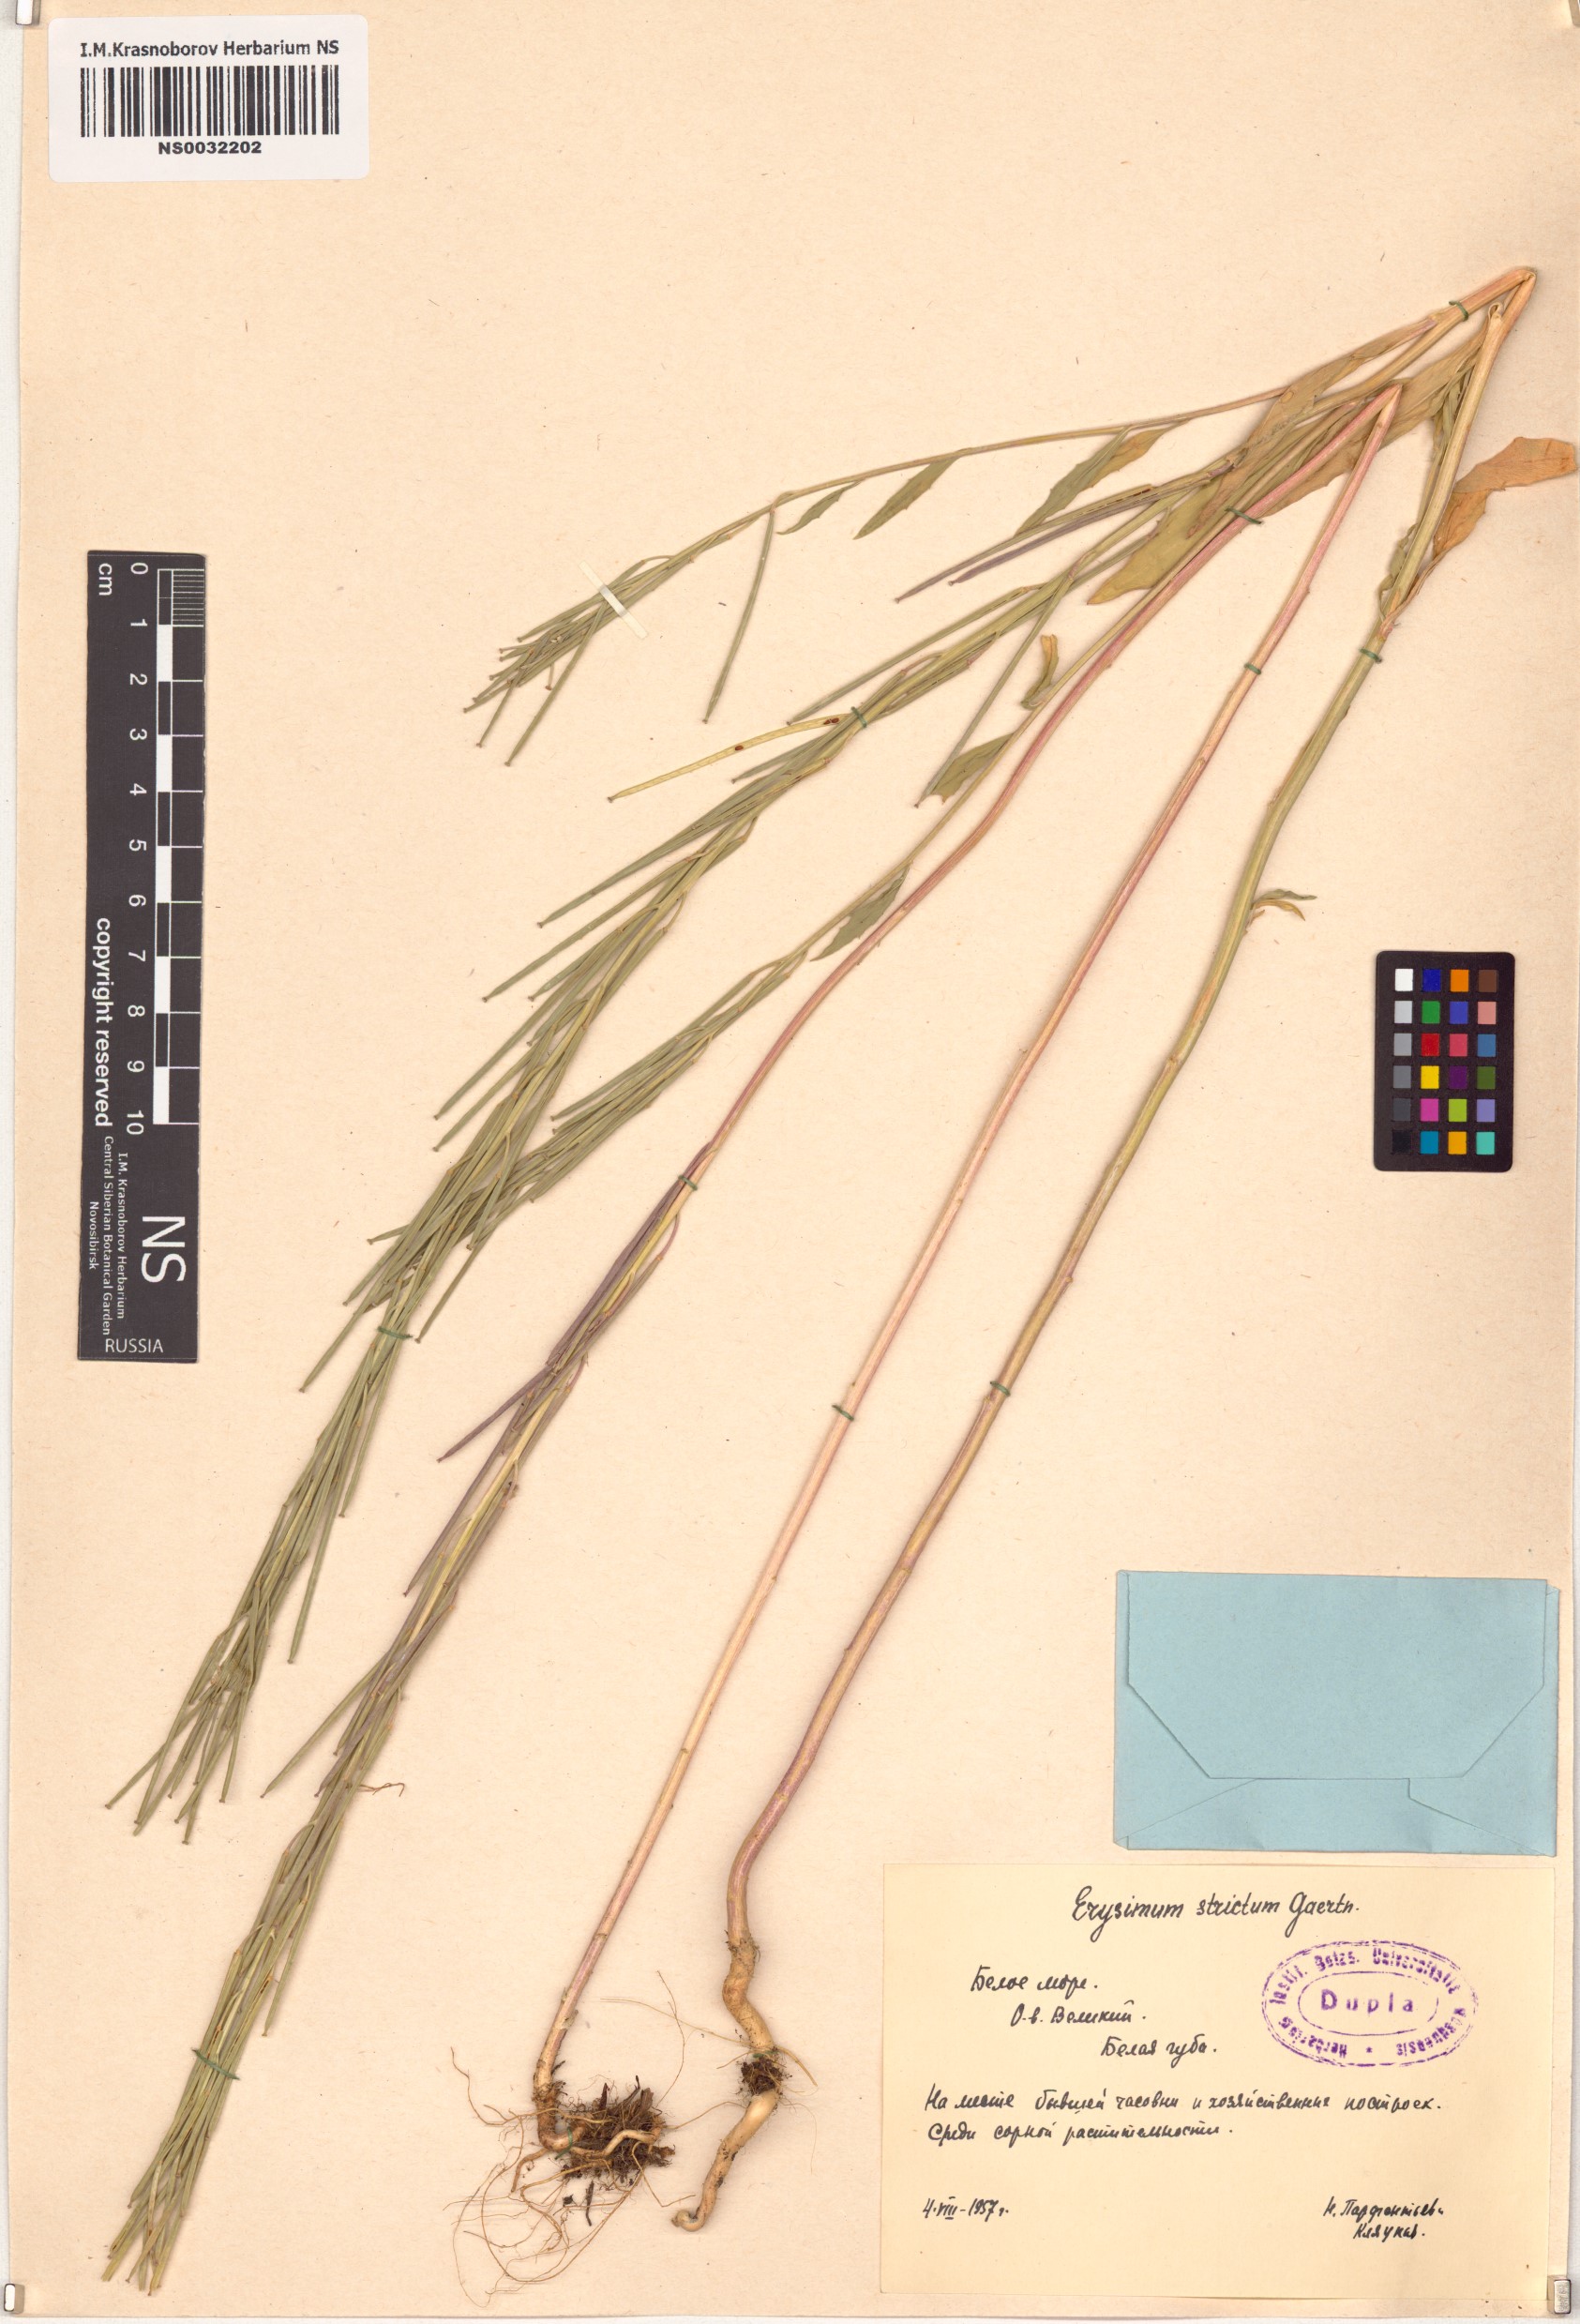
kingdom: Plantae
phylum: Tracheophyta
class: Magnoliopsida
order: Brassicales
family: Brassicaceae
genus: Erysimum
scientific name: Erysimum strictum
